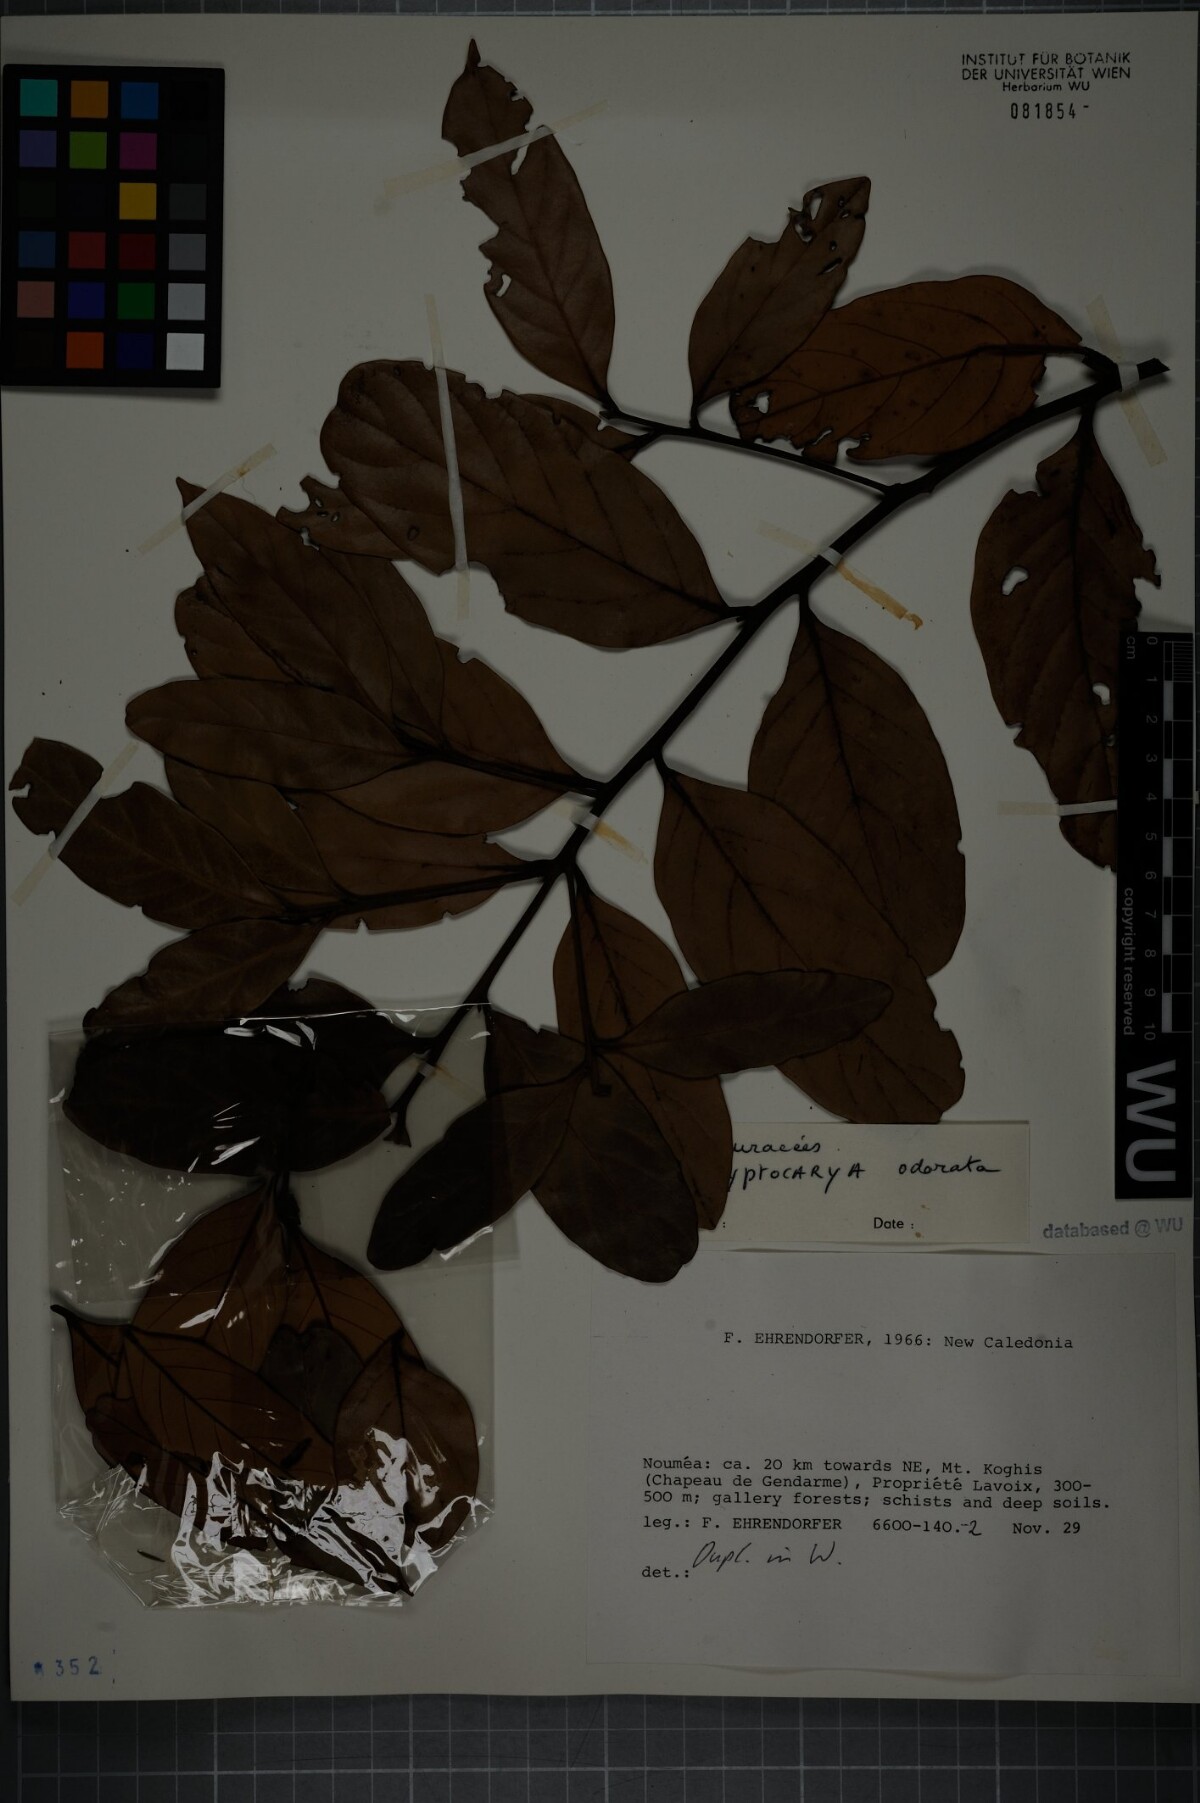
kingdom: Plantae
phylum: Tracheophyta
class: Magnoliopsida
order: Laurales
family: Lauraceae
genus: Cryptocarya
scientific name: Cryptocarya odorata
